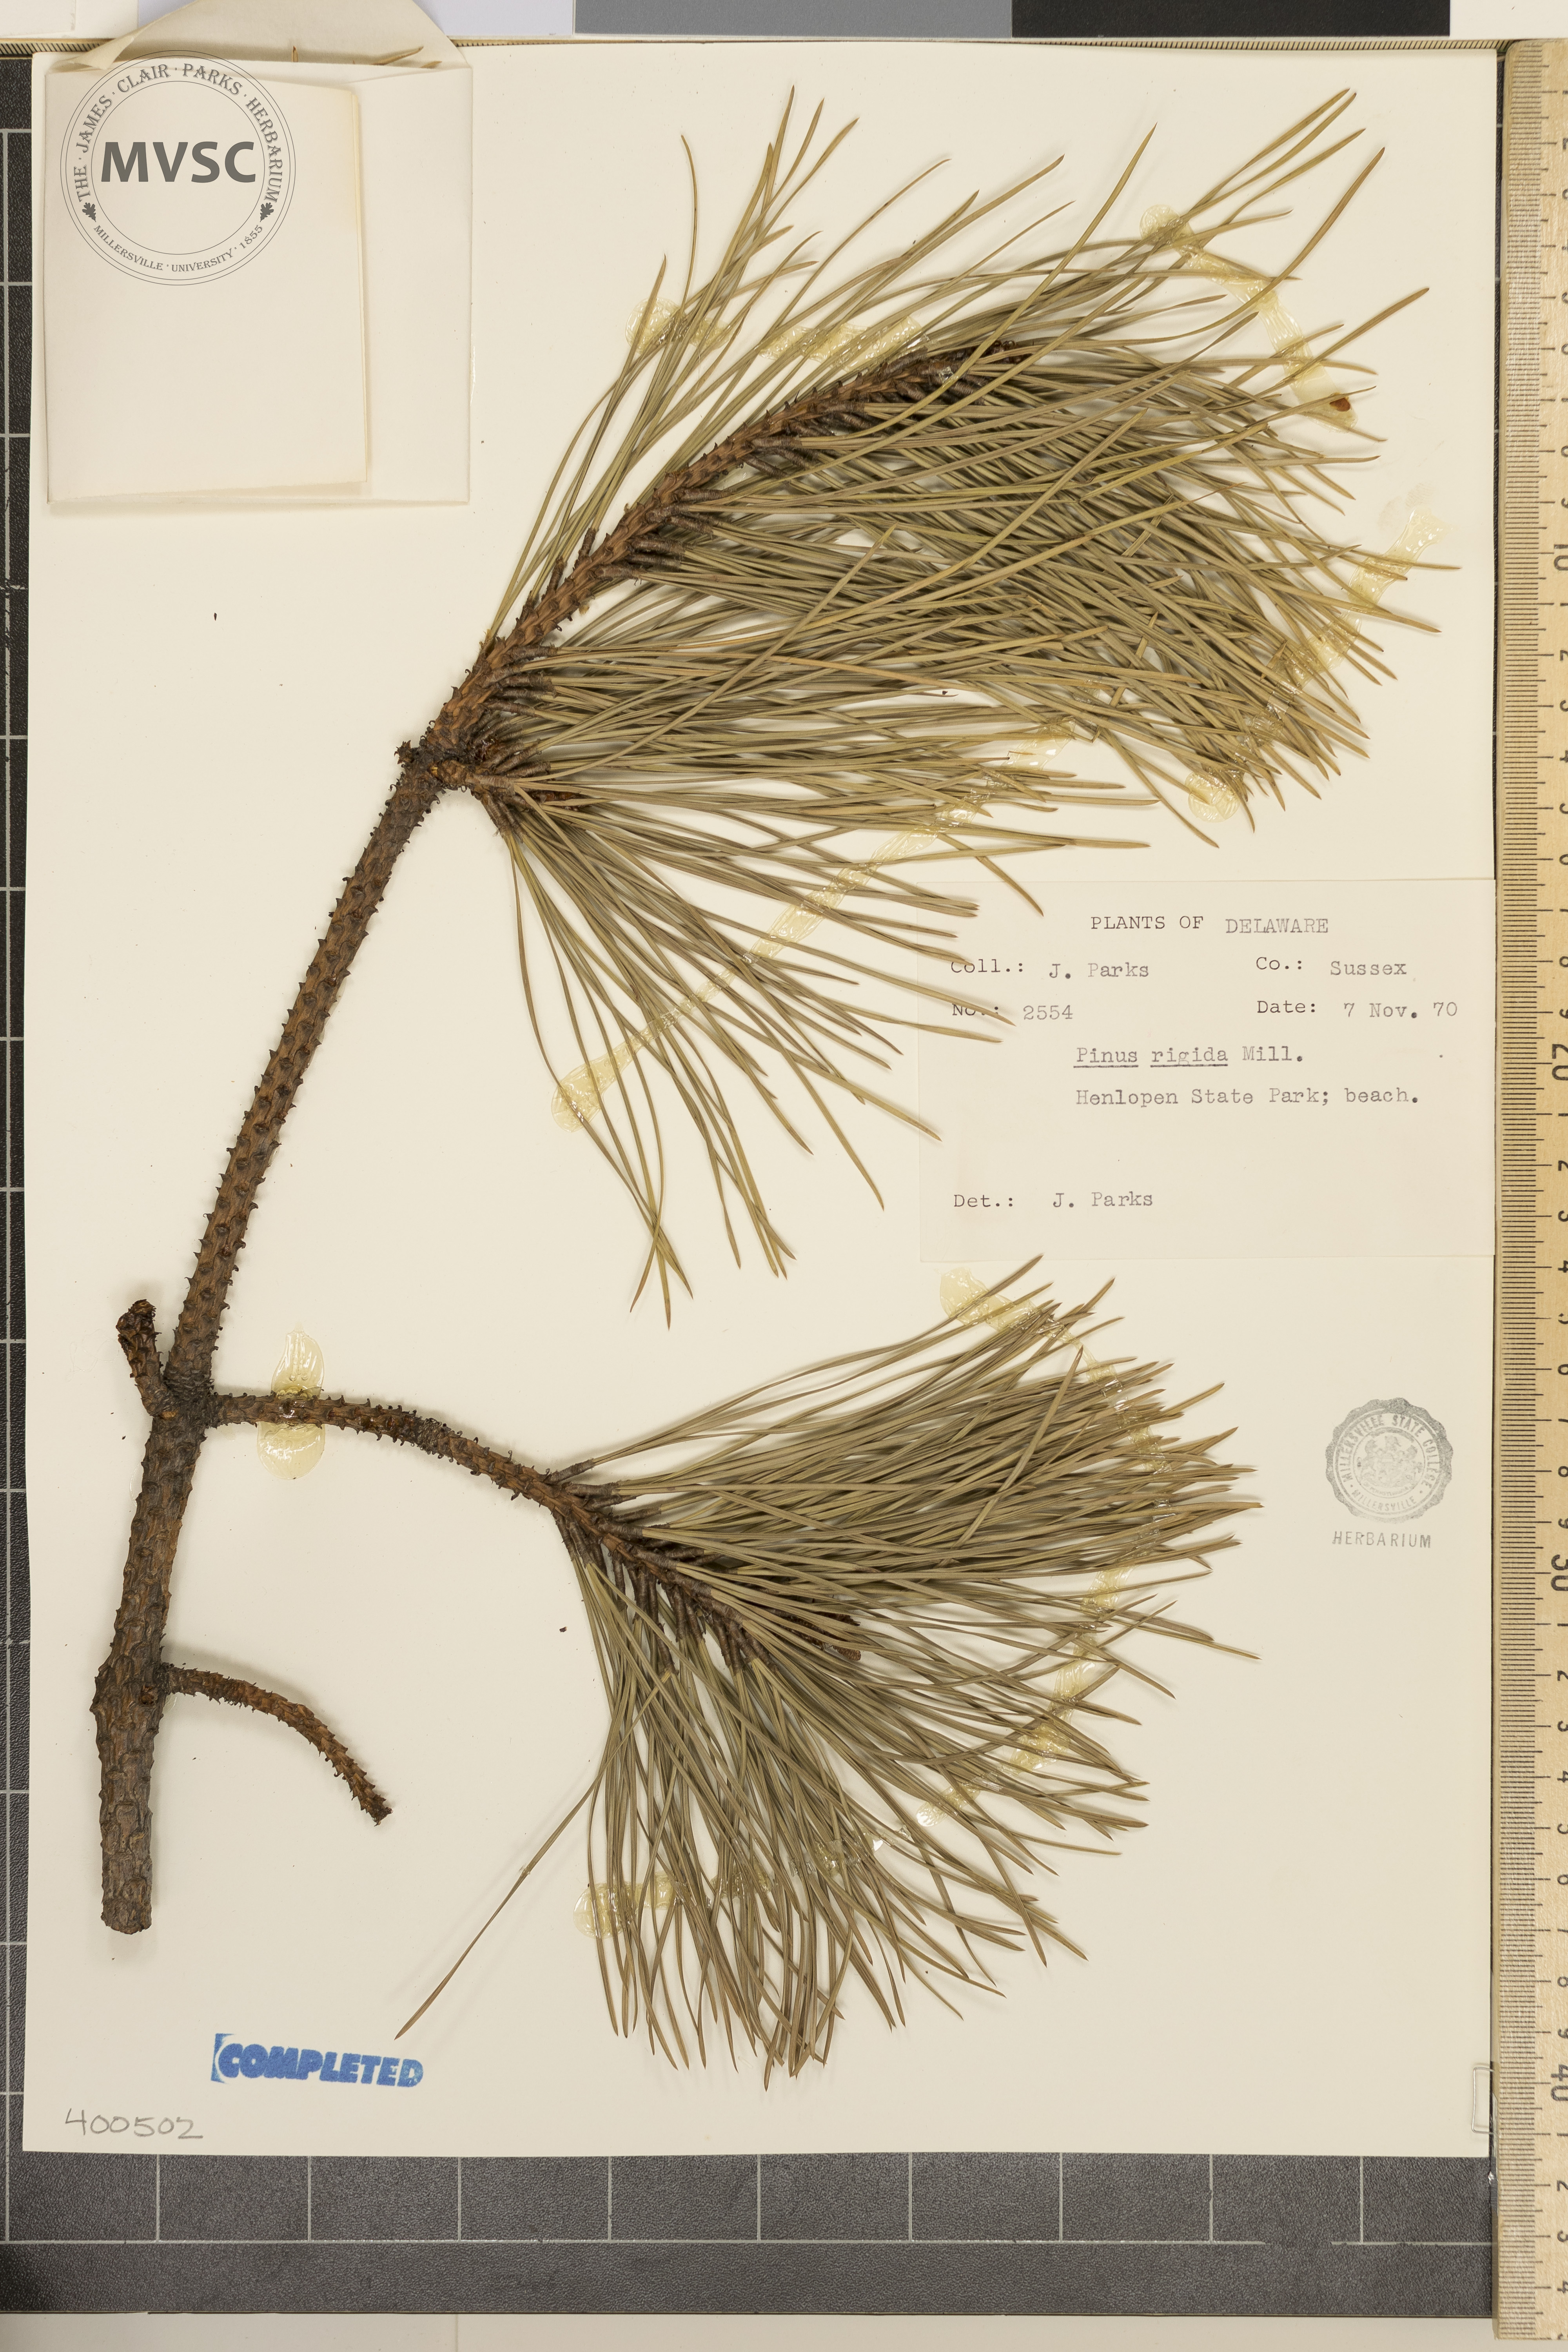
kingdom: Plantae
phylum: Tracheophyta
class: Pinopsida
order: Pinales
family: Pinaceae
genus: Pinus
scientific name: Pinus rigida
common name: pitch pine
